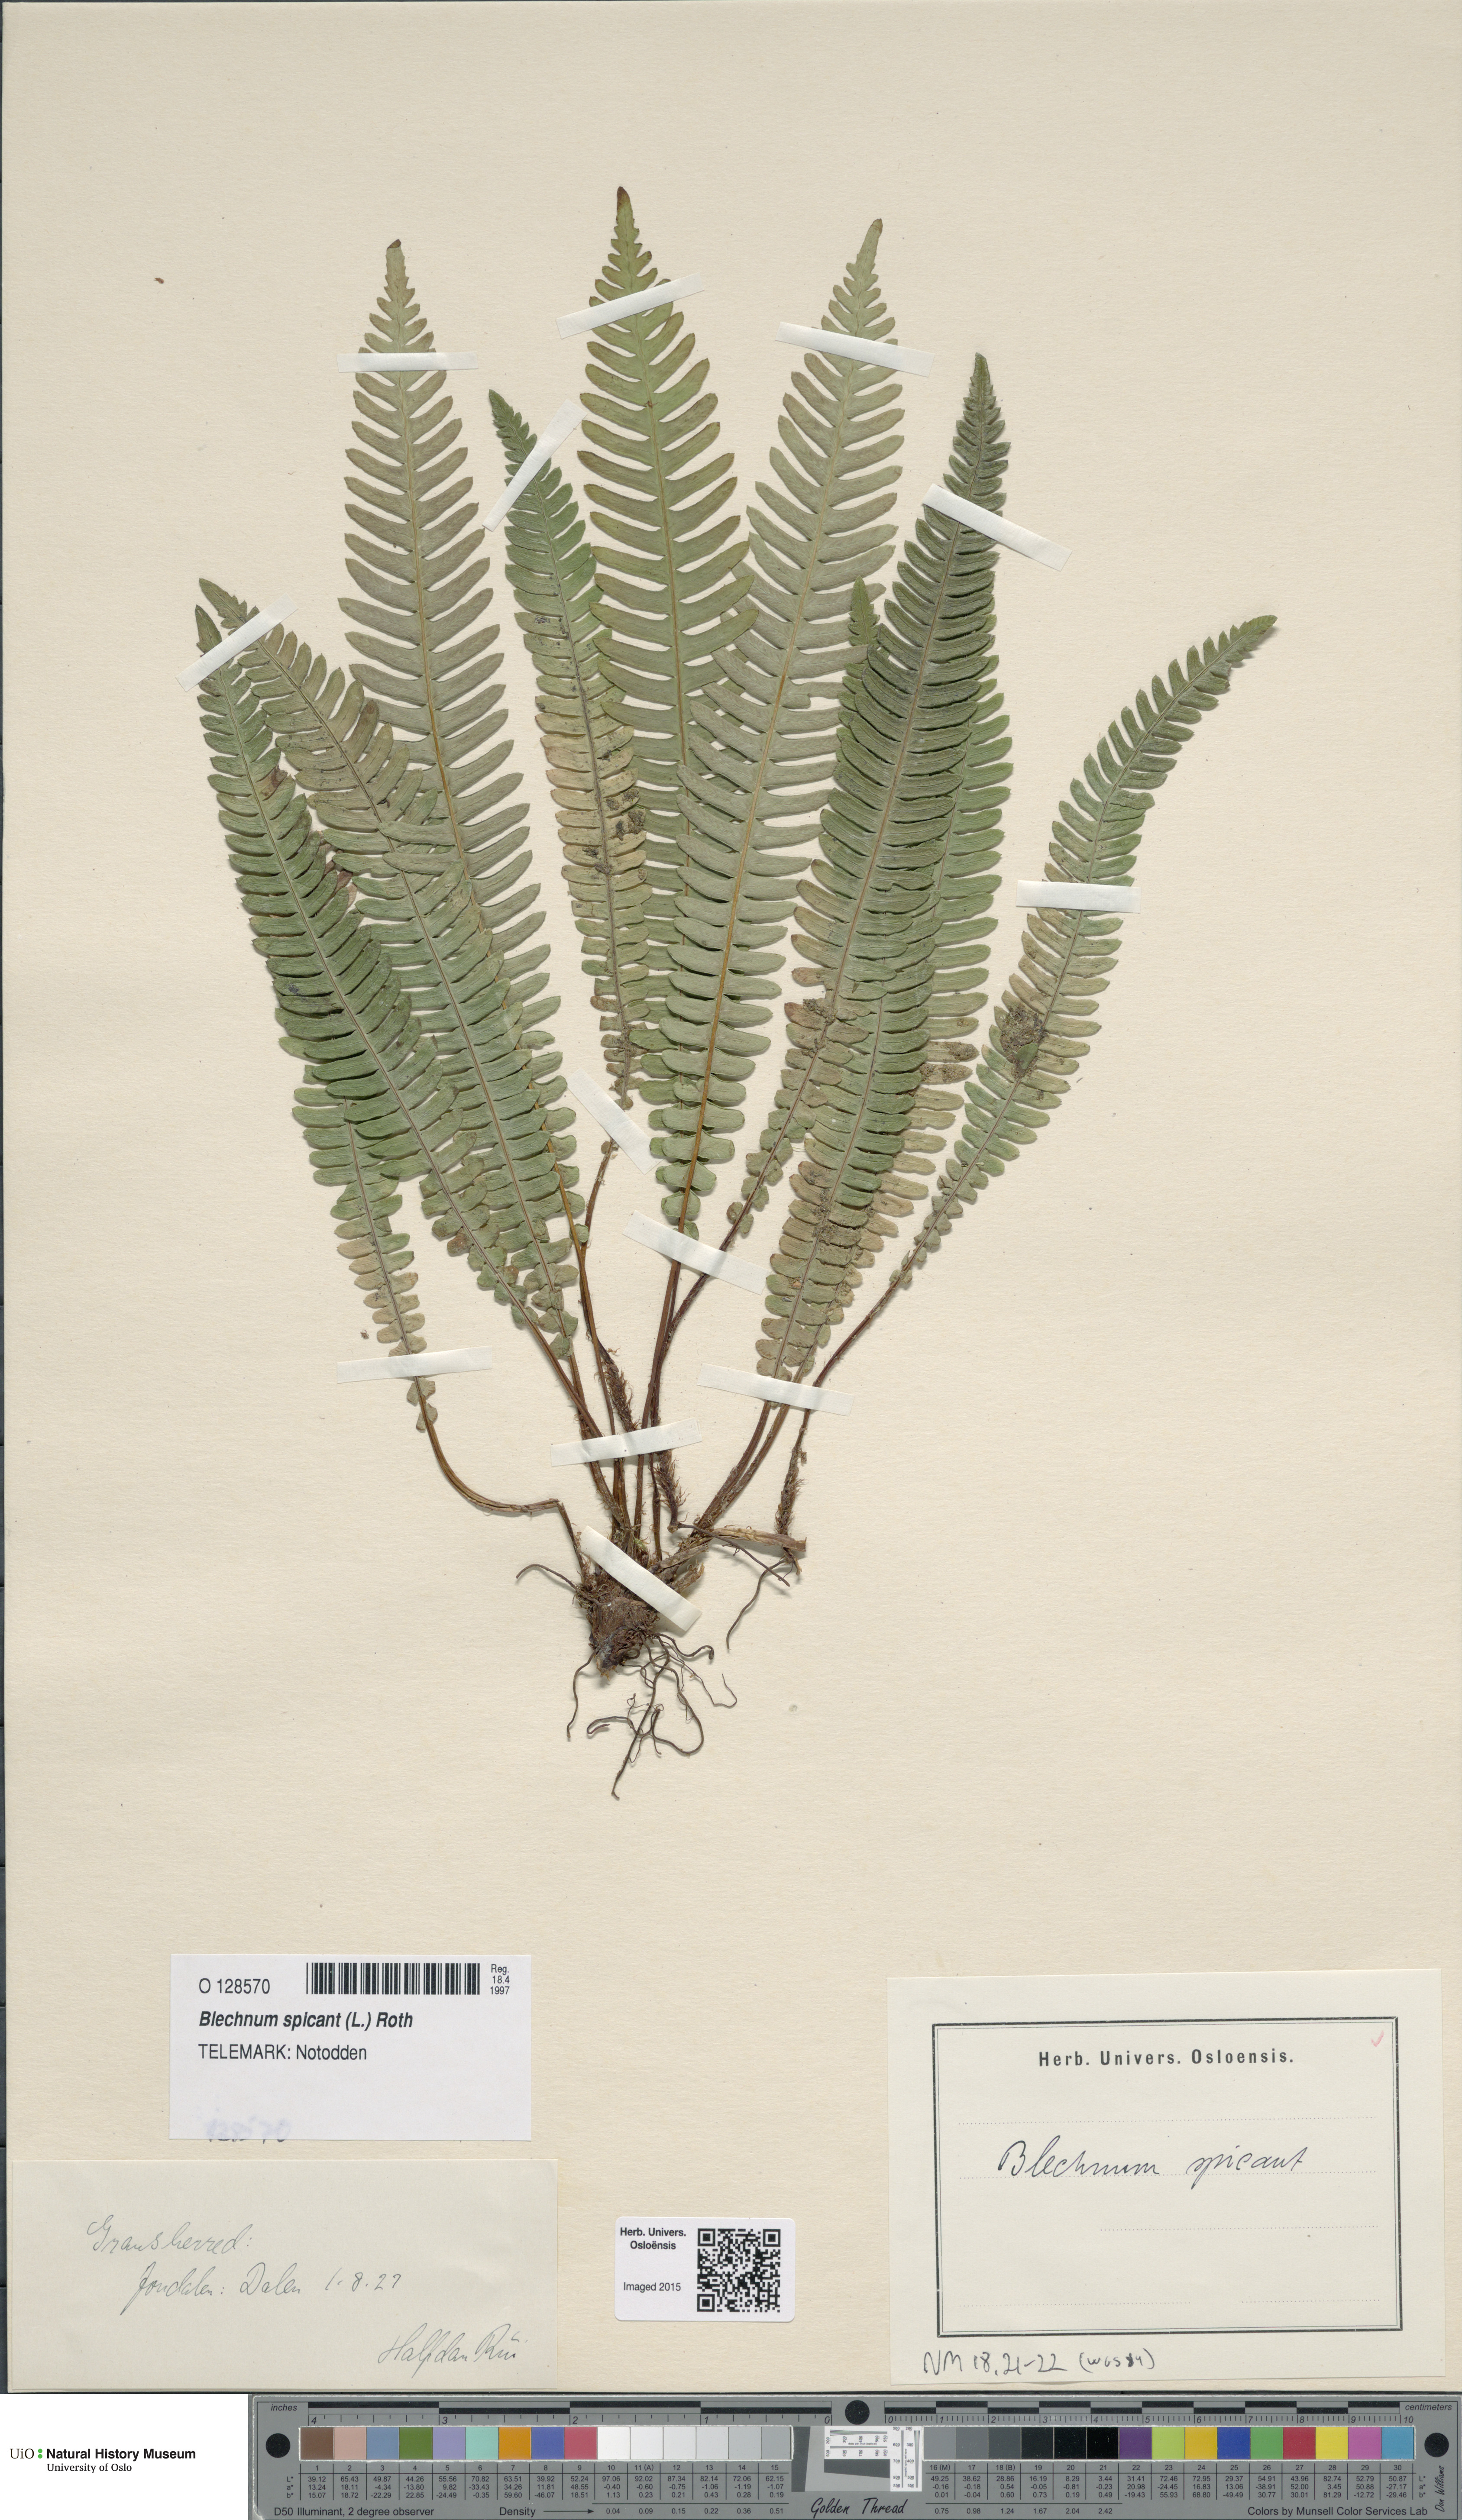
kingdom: Plantae
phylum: Tracheophyta
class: Polypodiopsida
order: Polypodiales
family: Blechnaceae
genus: Struthiopteris
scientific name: Struthiopteris spicant
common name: Deer fern
